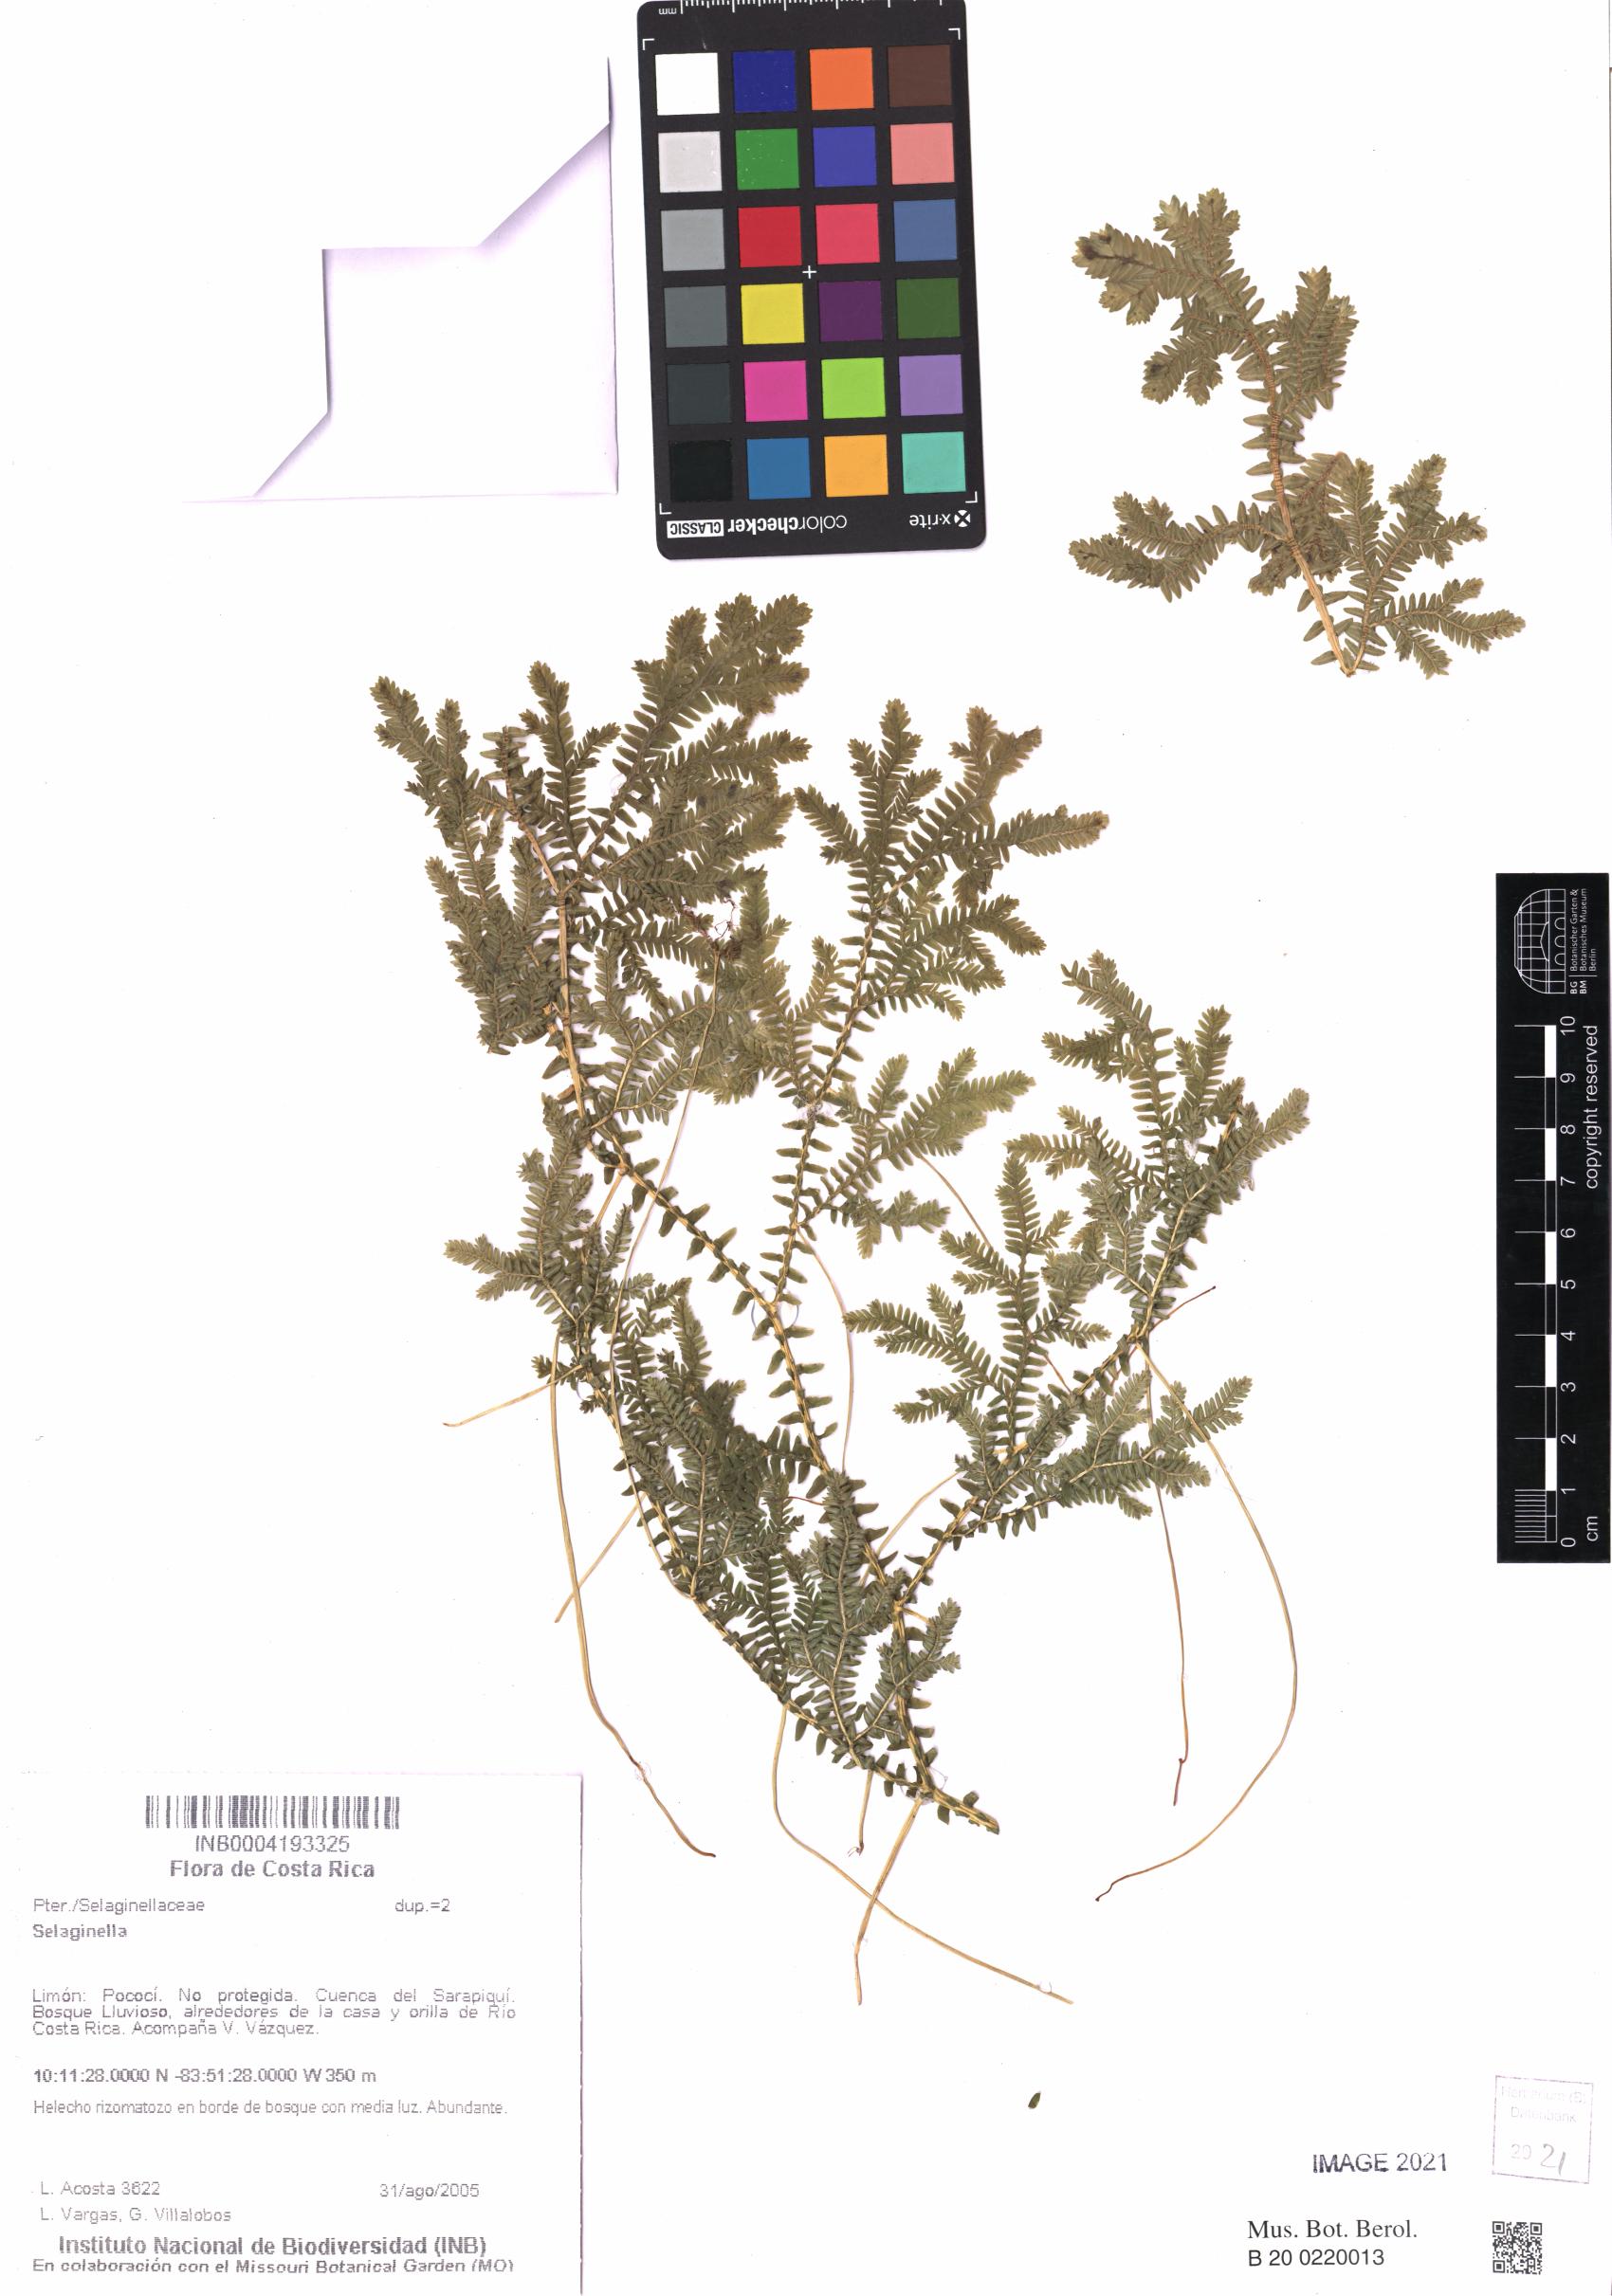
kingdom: Plantae
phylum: Tracheophyta
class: Lycopodiopsida
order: Selaginellales
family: Selaginellaceae
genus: Selaginella
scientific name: Selaginella
